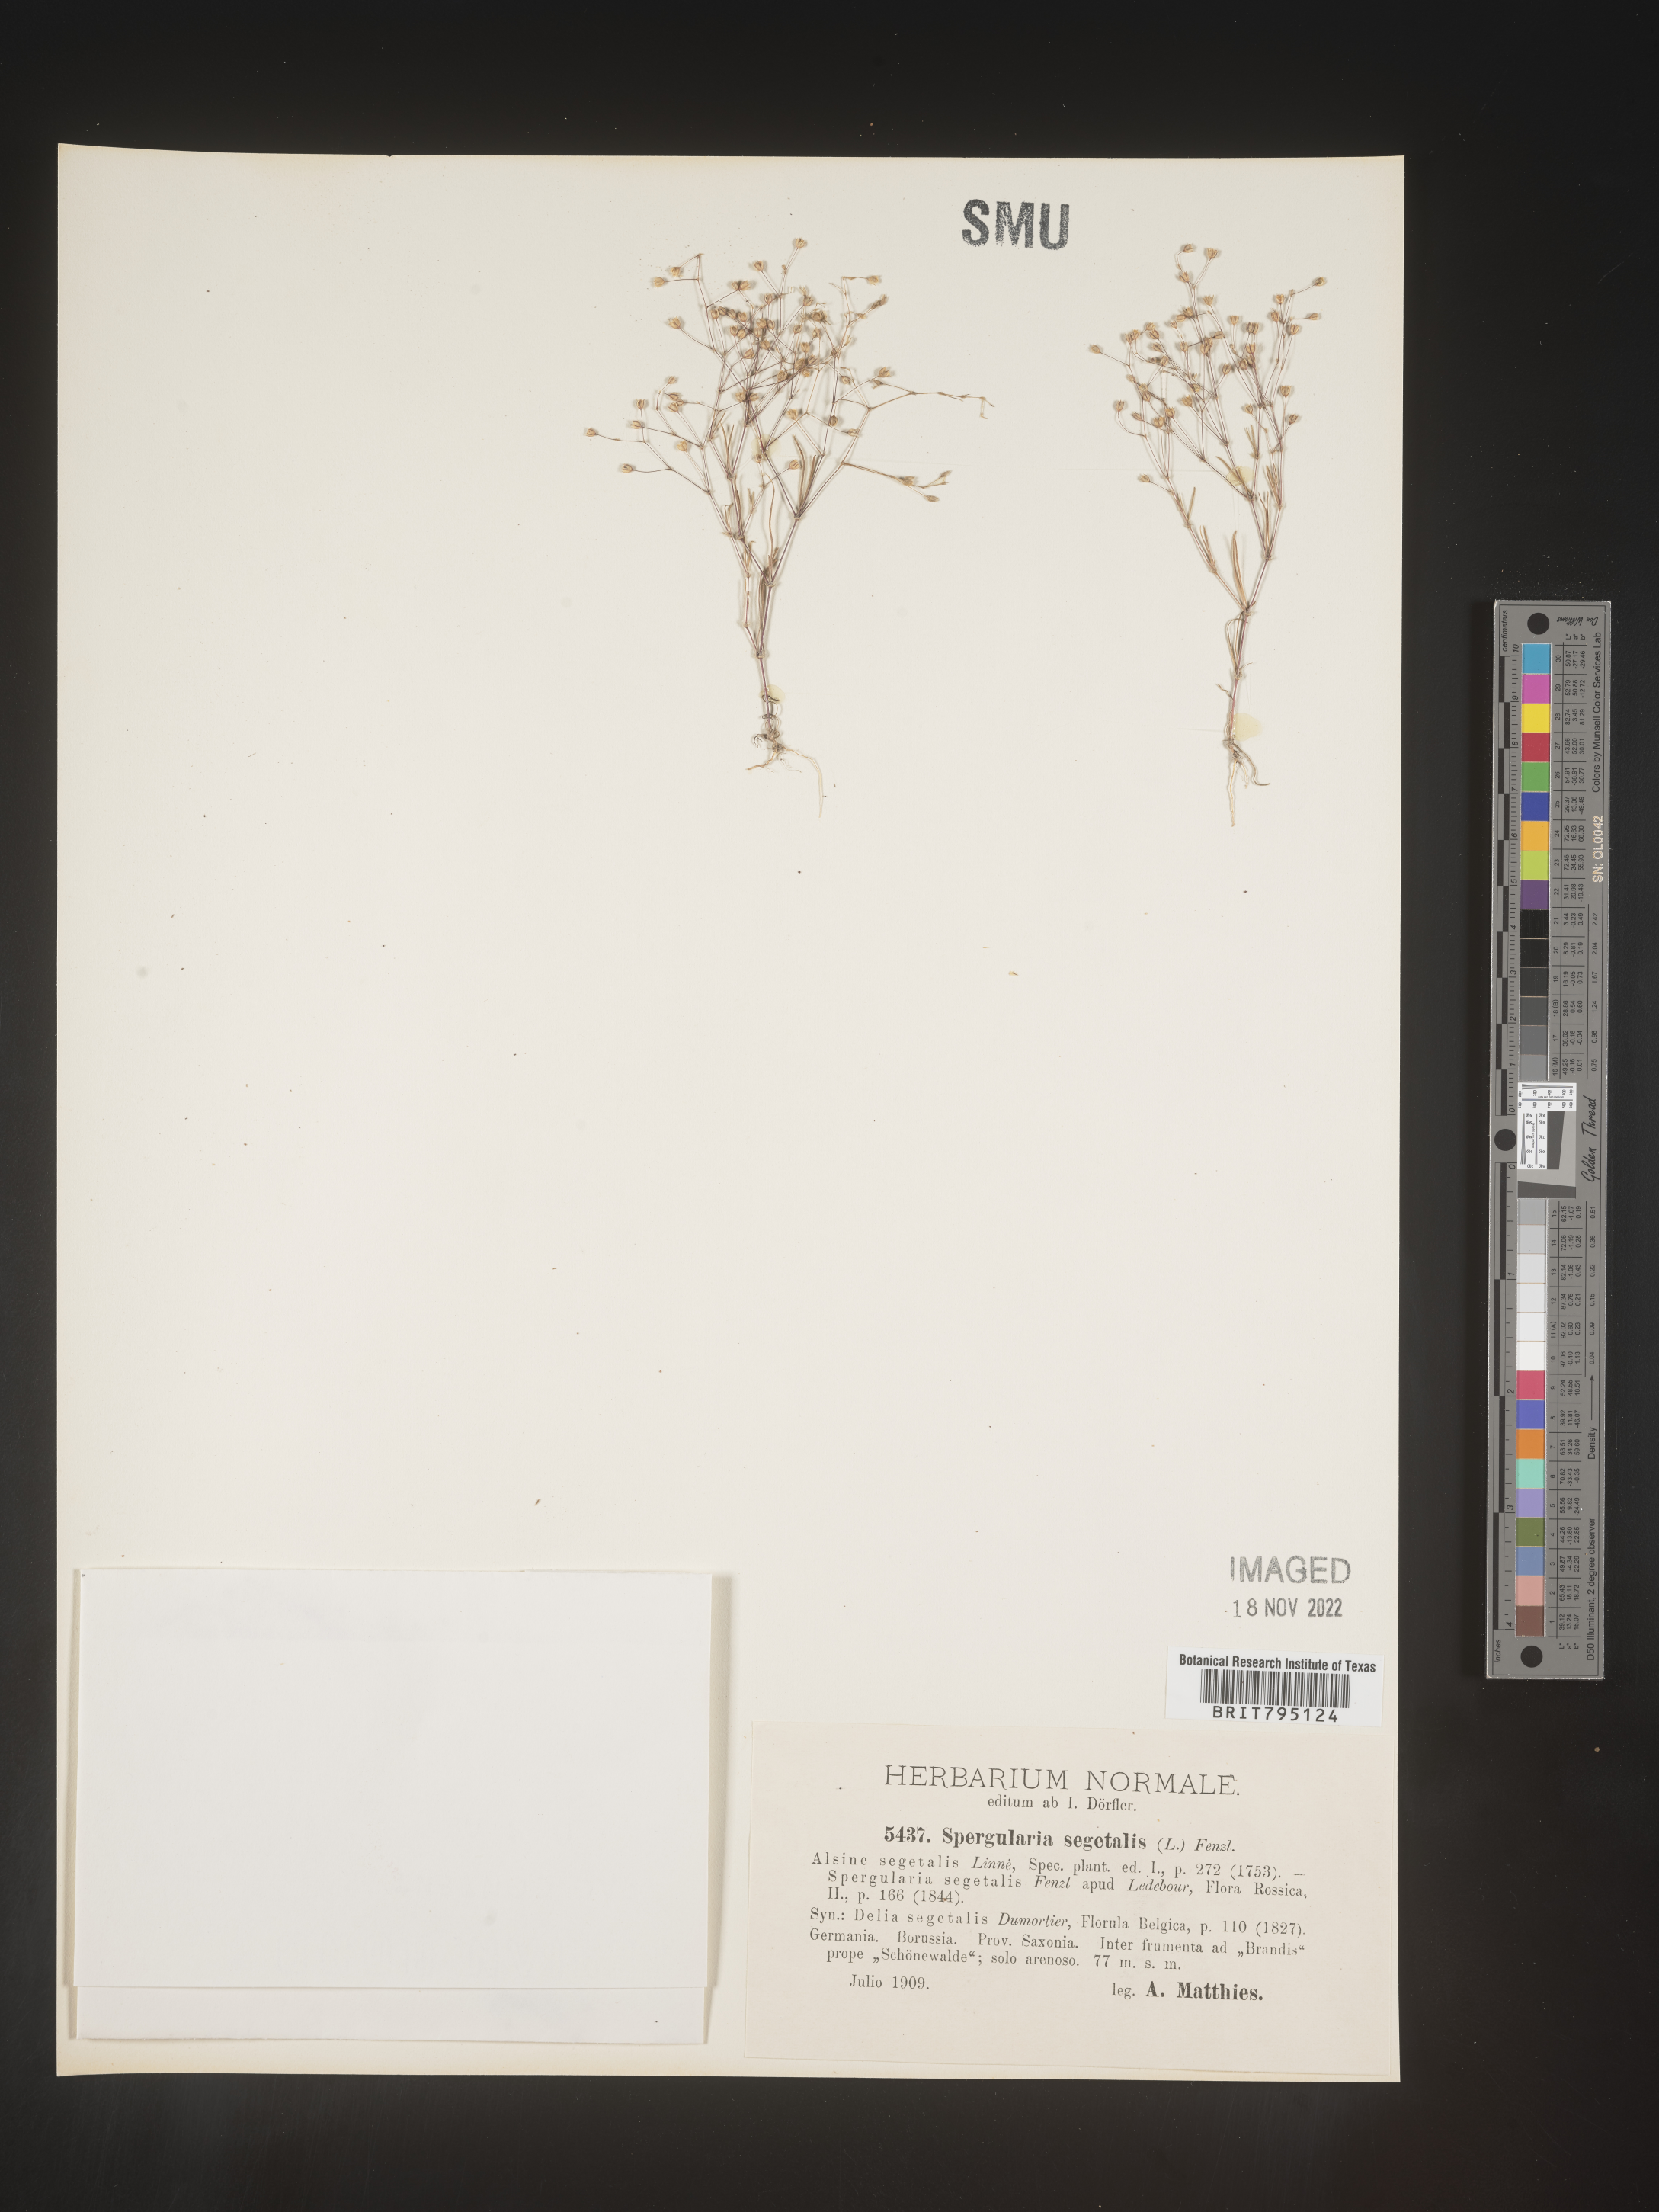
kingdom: Plantae
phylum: Tracheophyta
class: Magnoliopsida
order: Caryophyllales
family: Caryophyllaceae
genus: Spergularia
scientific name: Spergularia segetalis
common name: Corn sand spurrey
